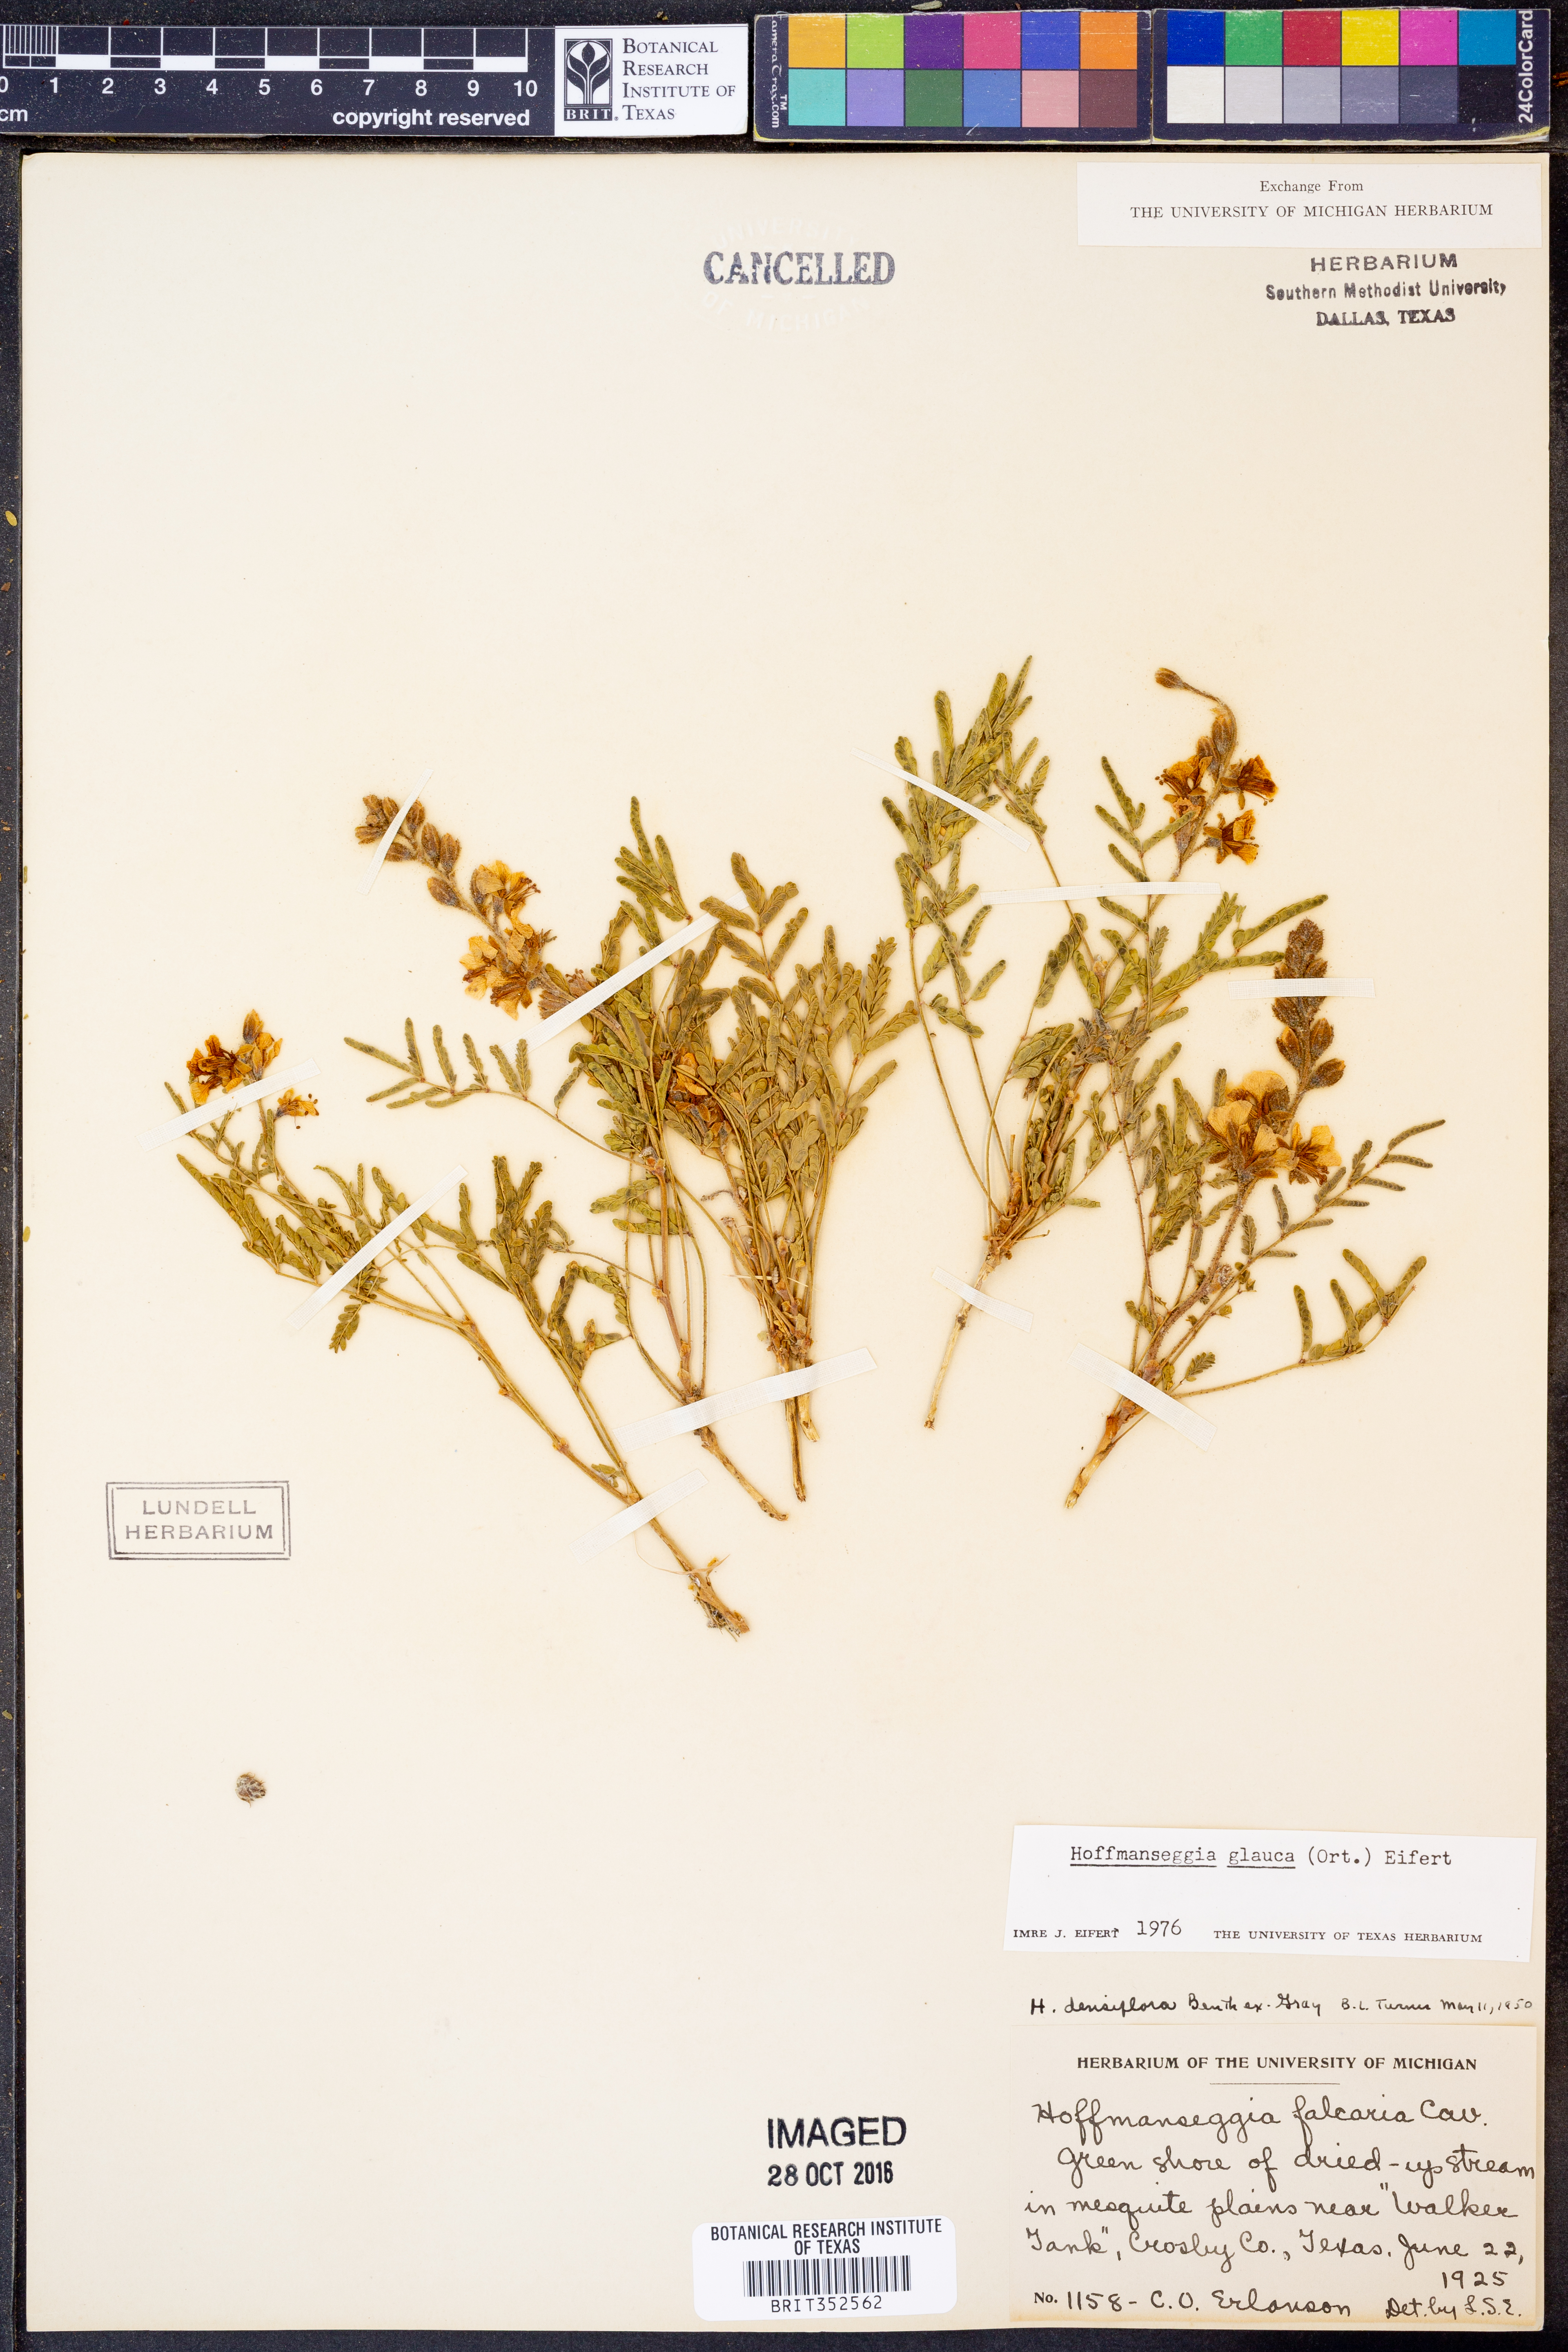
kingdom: Plantae
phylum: Tracheophyta
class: Magnoliopsida
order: Fabales
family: Fabaceae
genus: Hoffmannseggia
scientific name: Hoffmannseggia glauca
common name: Pignut
